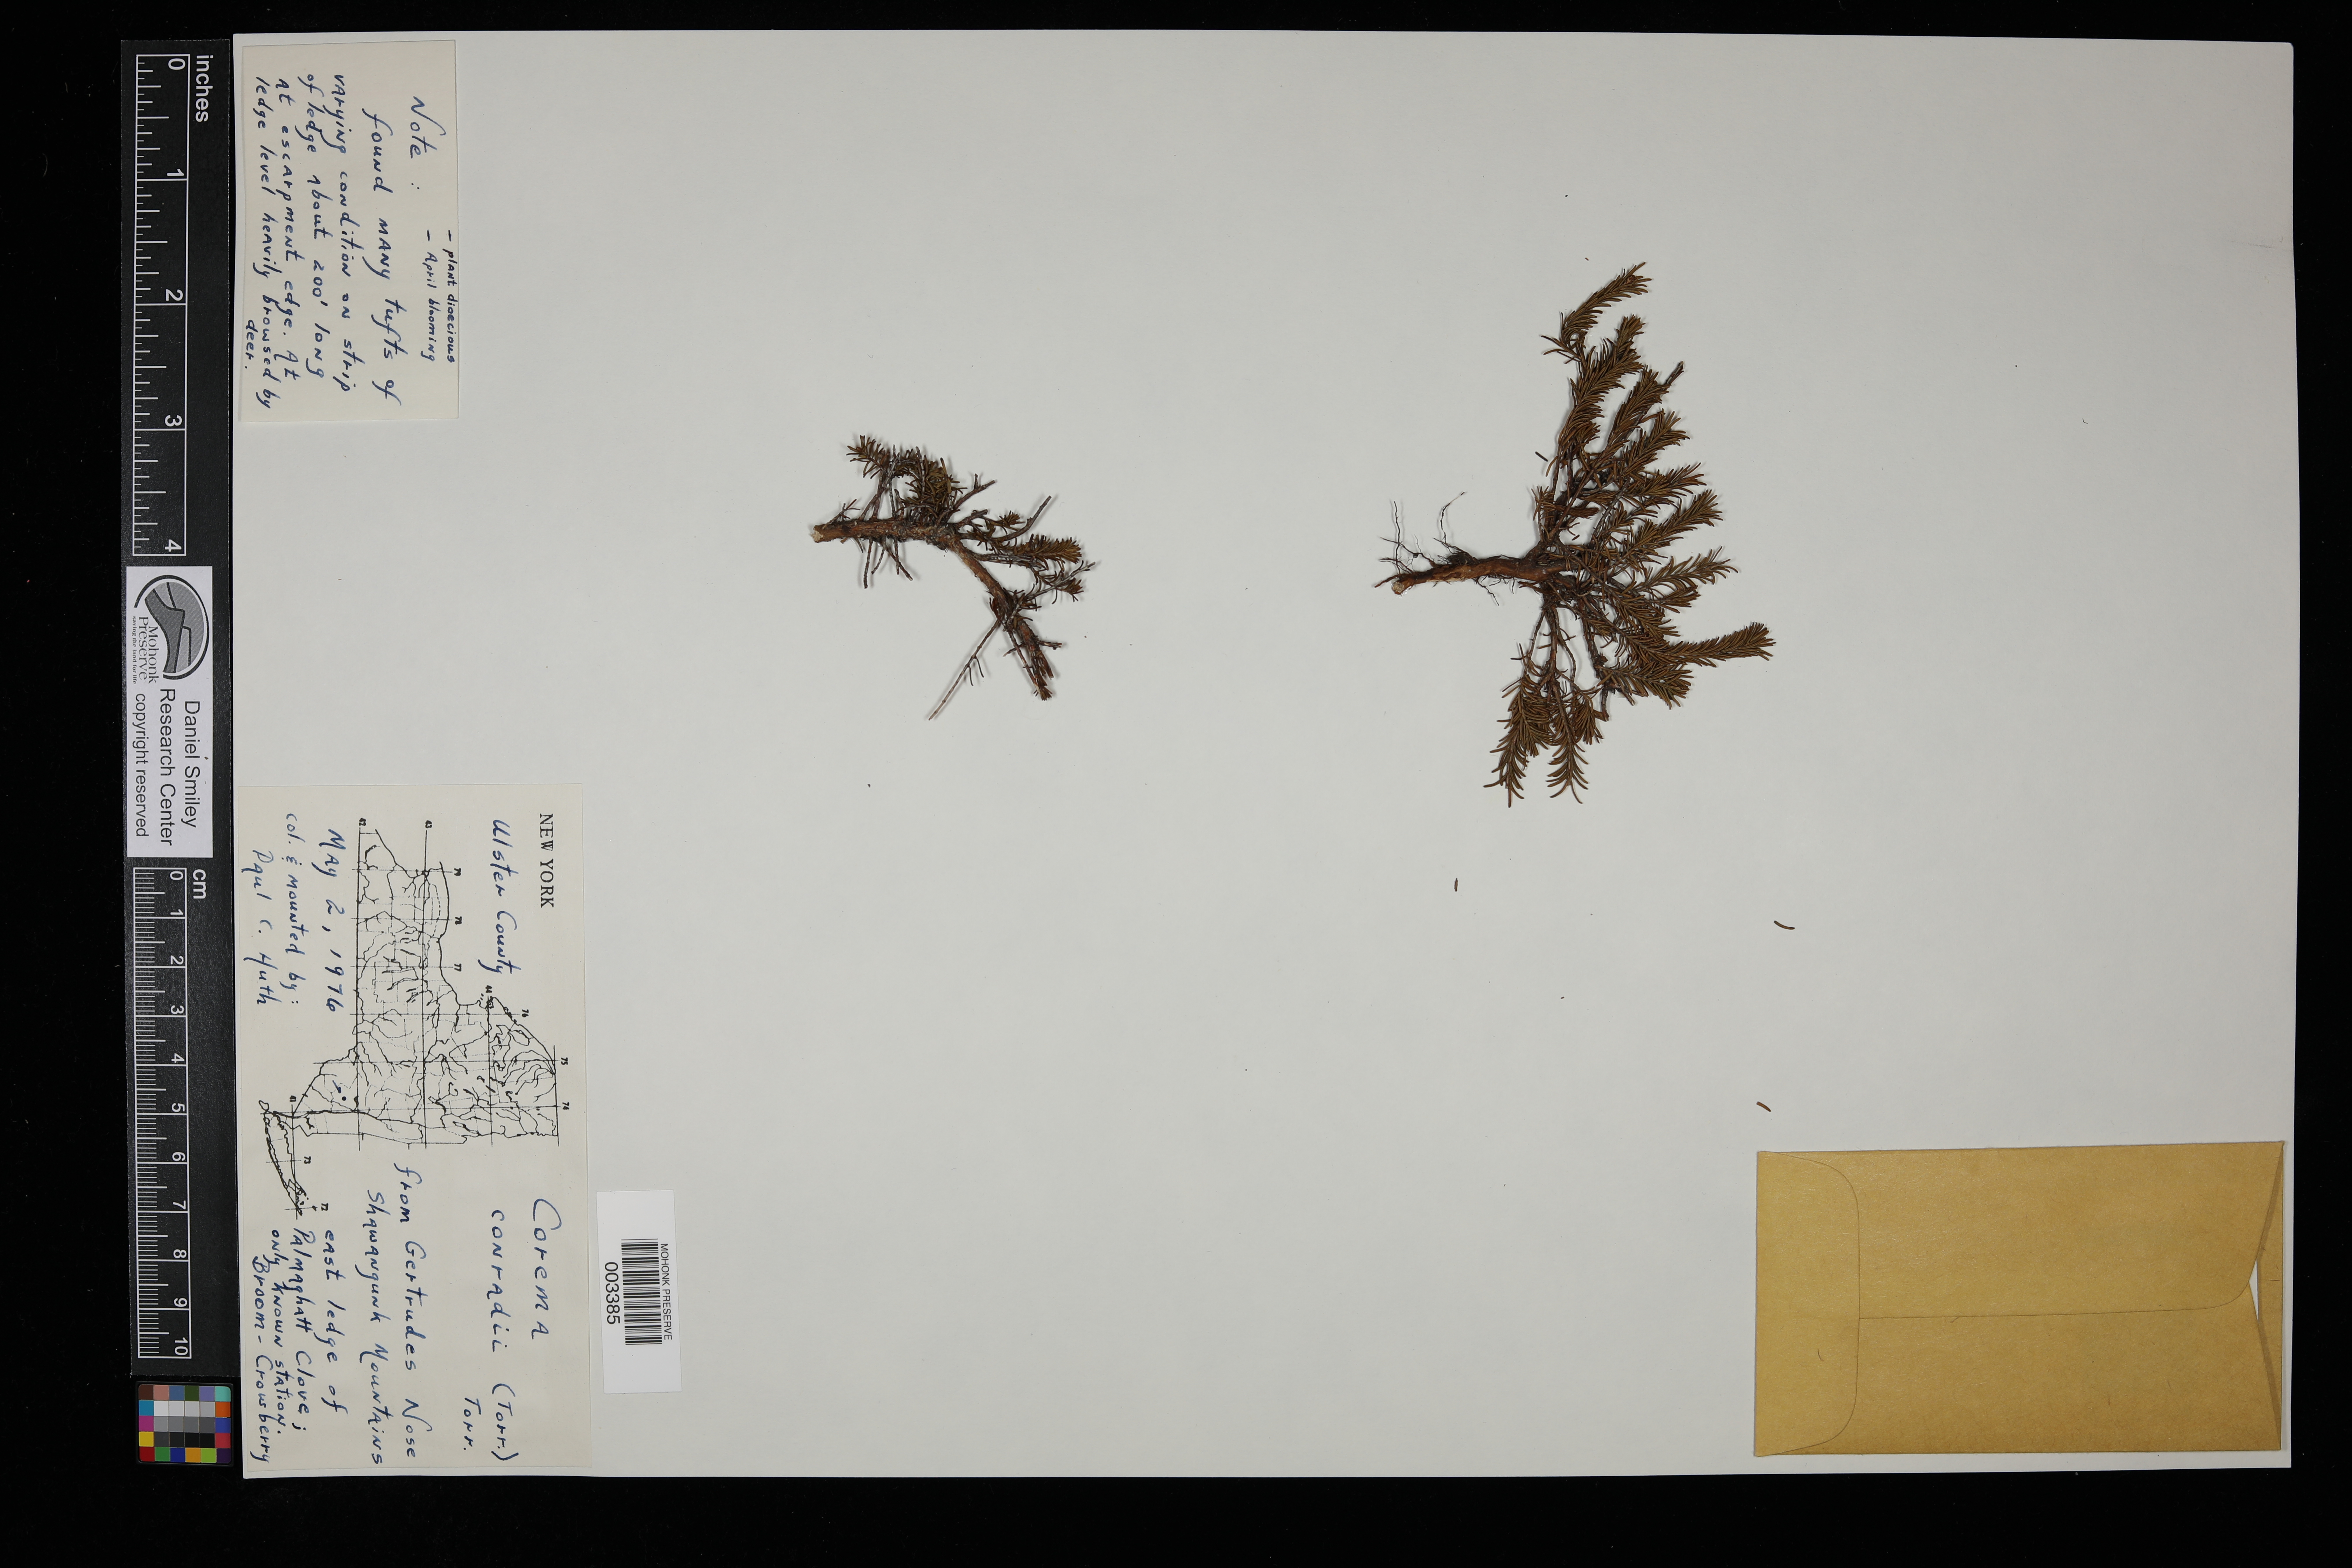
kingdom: Plantae
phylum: Tracheophyta
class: Magnoliopsida
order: Ericales
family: Ericaceae
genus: Corema
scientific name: Corema conradii
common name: Broom-crowberry
